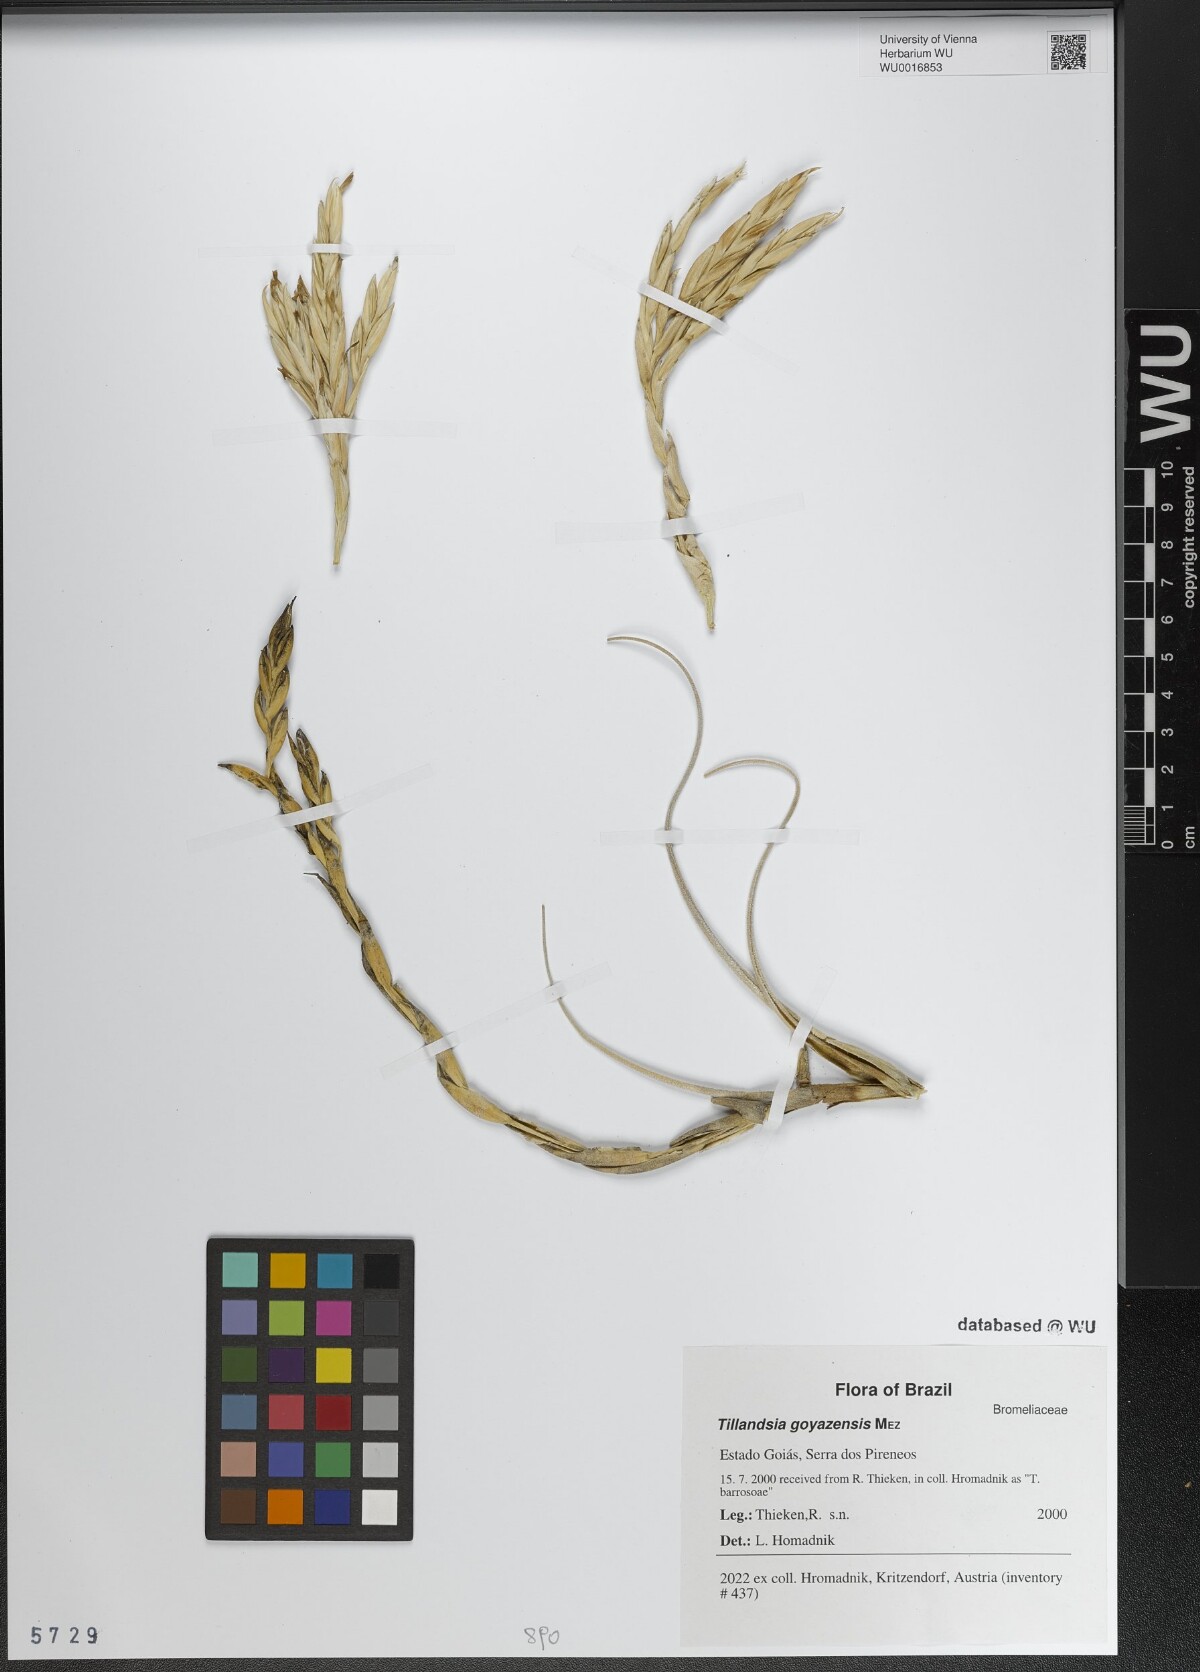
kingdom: Plantae
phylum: Tracheophyta
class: Liliopsida
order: Poales
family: Bromeliaceae
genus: Tillandsia
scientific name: Tillandsia didisticha
